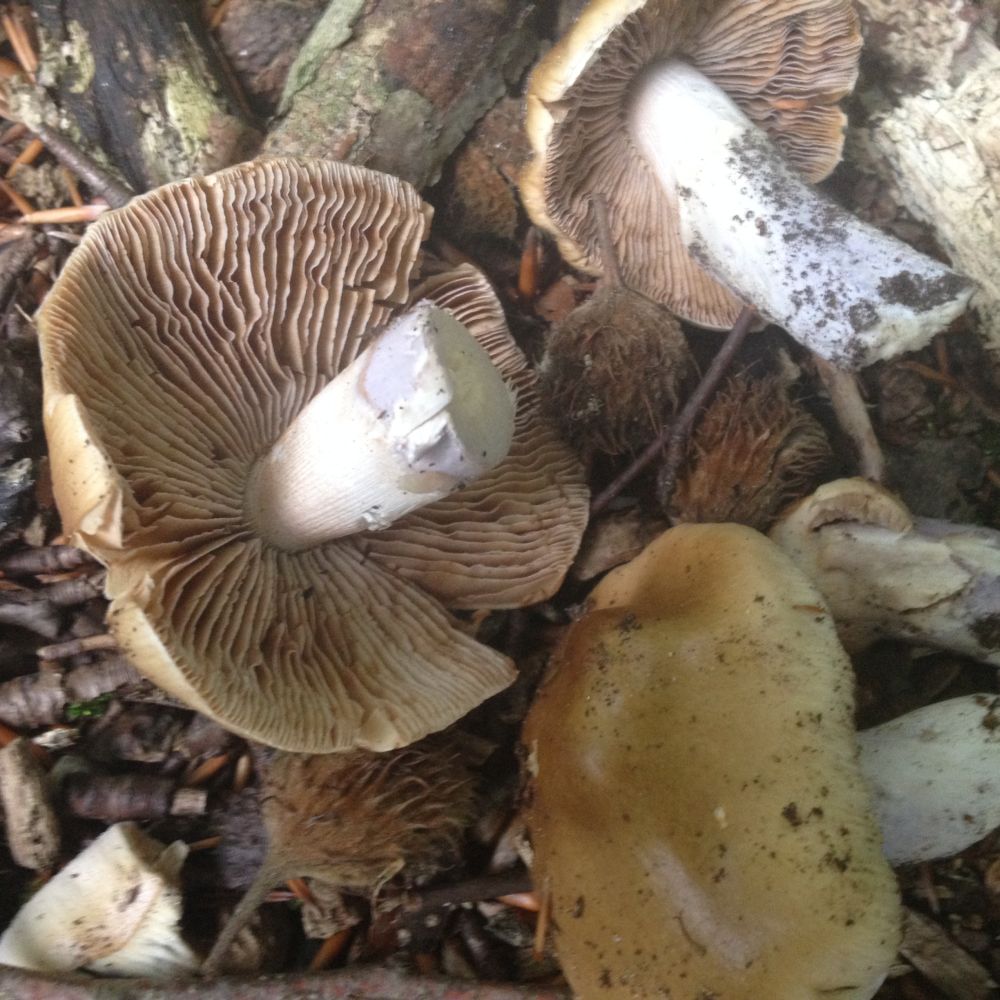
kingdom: Fungi
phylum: Basidiomycota
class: Agaricomycetes
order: Agaricales
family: Cortinariaceae
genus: Cortinarius
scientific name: Cortinarius torvus
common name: champignonagtig slørhat
